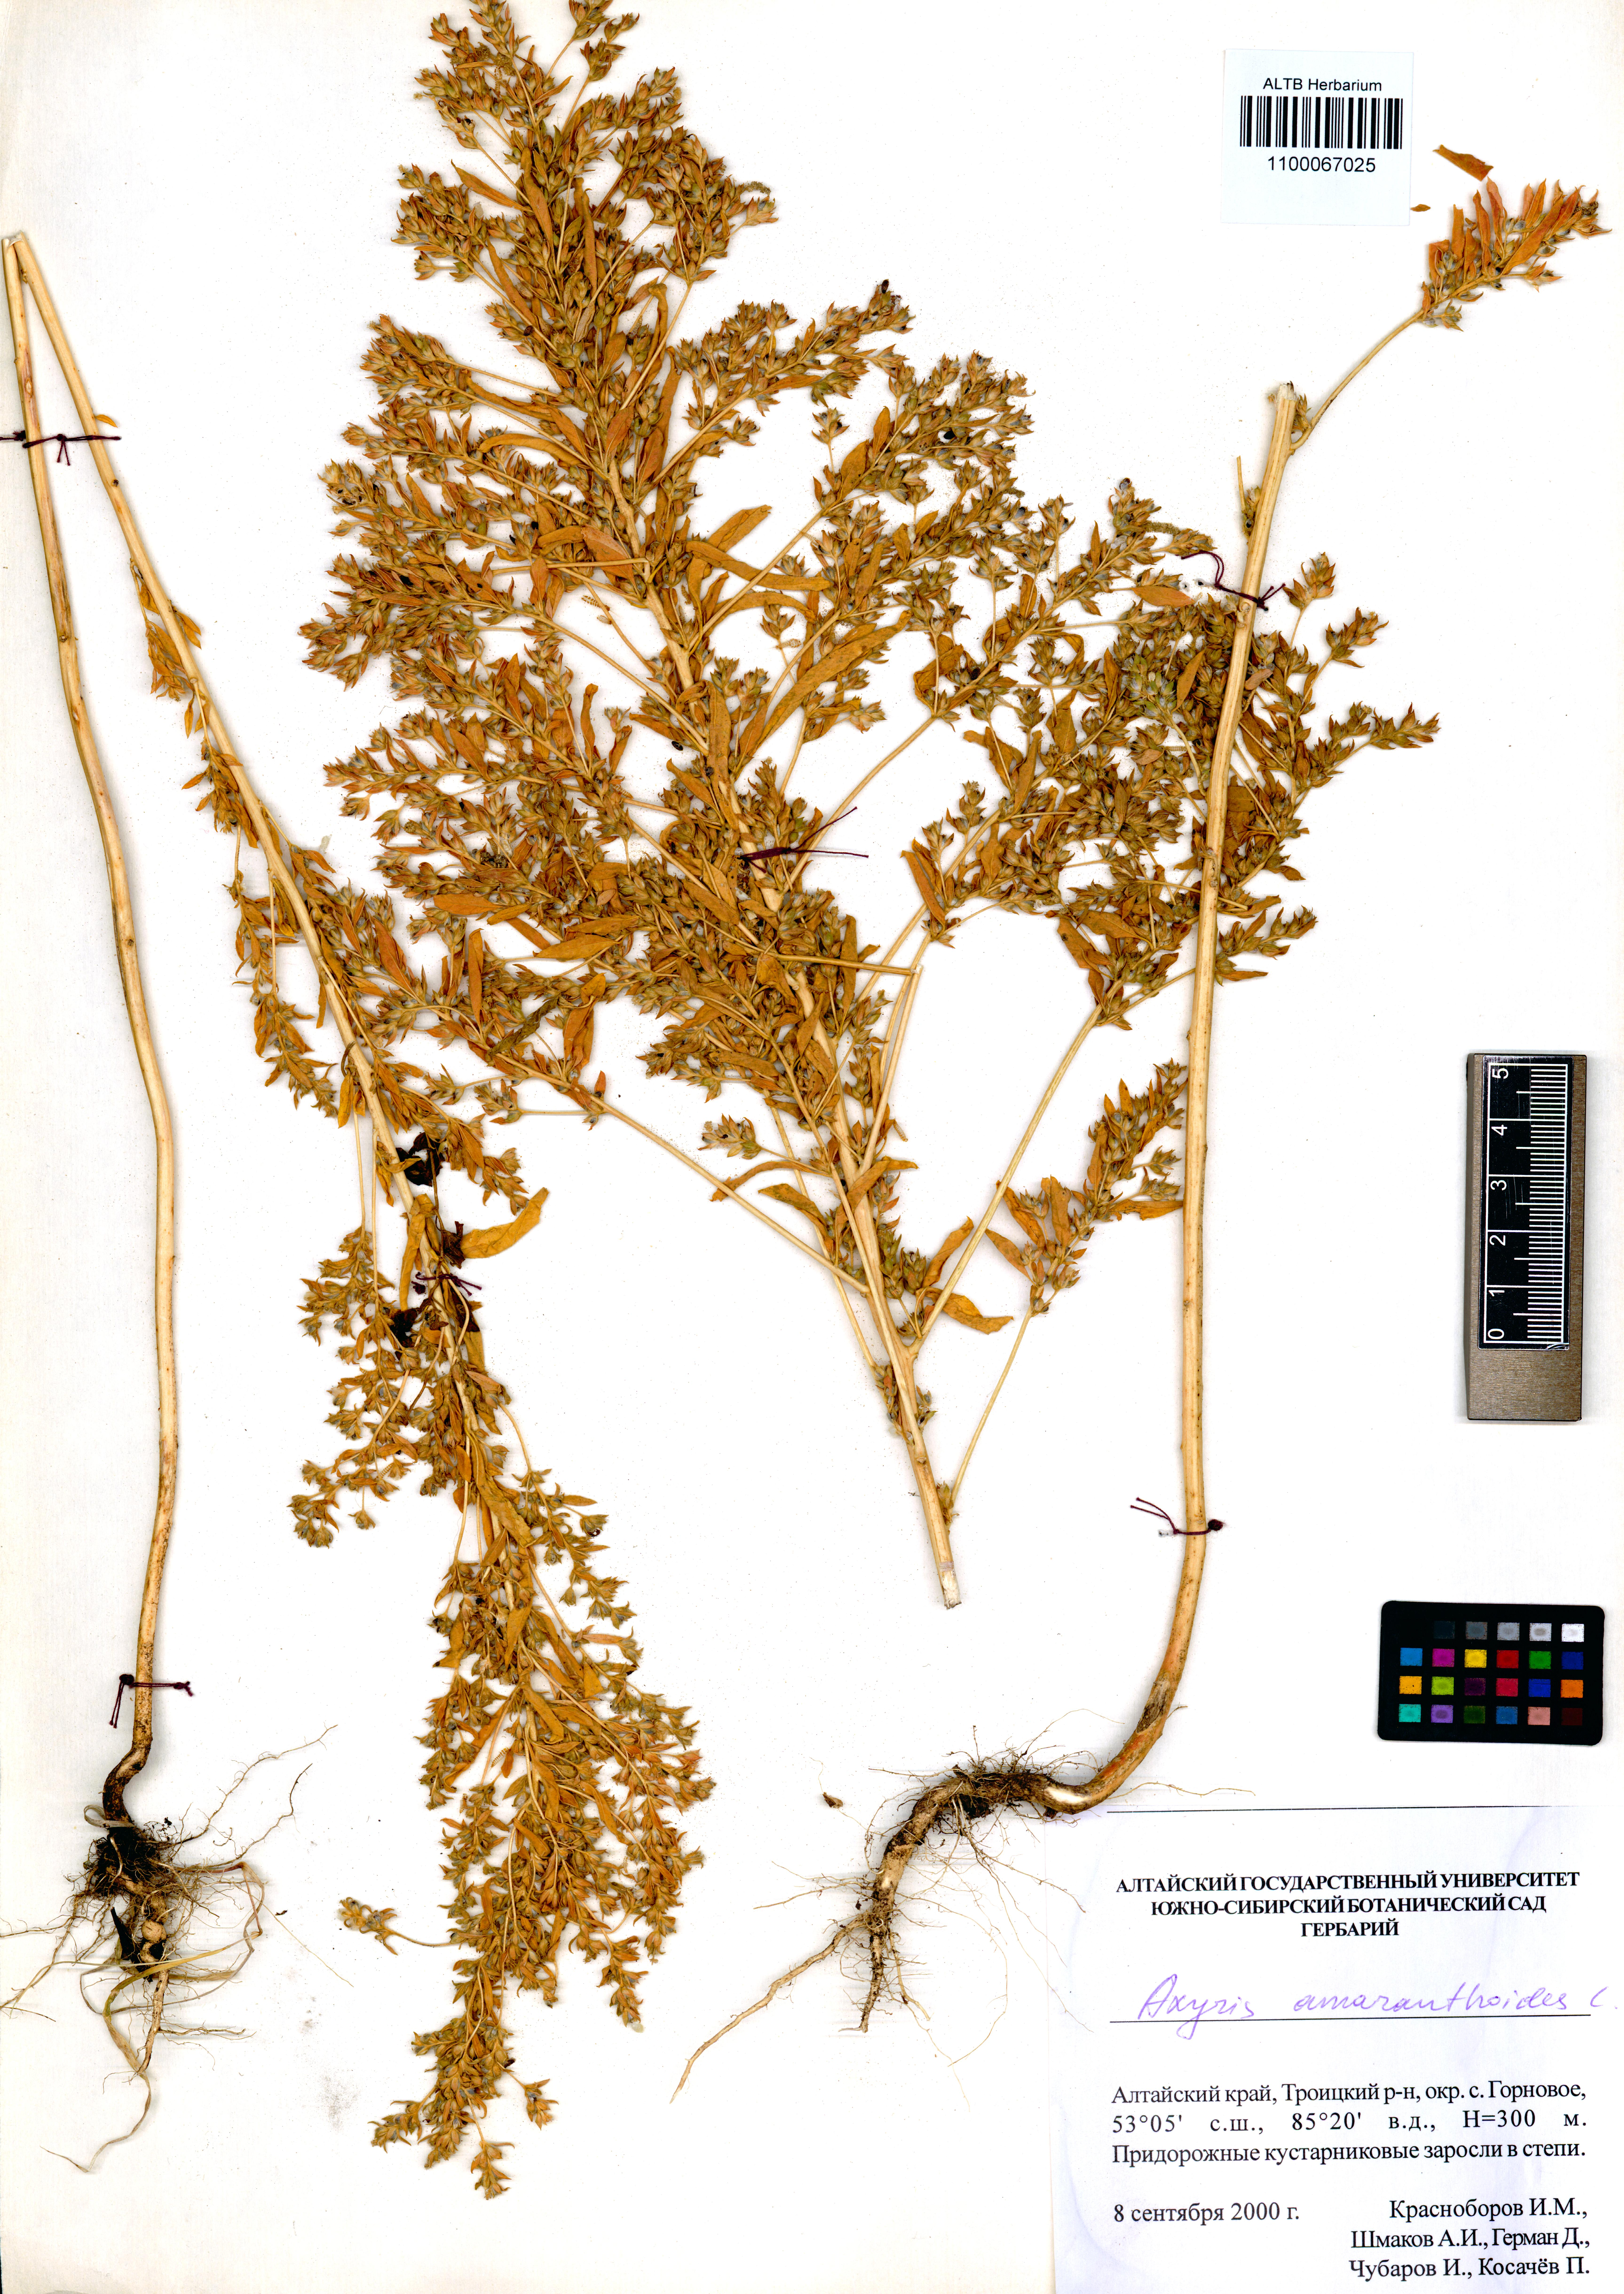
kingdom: Plantae
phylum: Tracheophyta
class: Magnoliopsida
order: Caryophyllales
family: Amaranthaceae
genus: Axyris
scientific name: Axyris amaranthoides
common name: Russian pigweed
